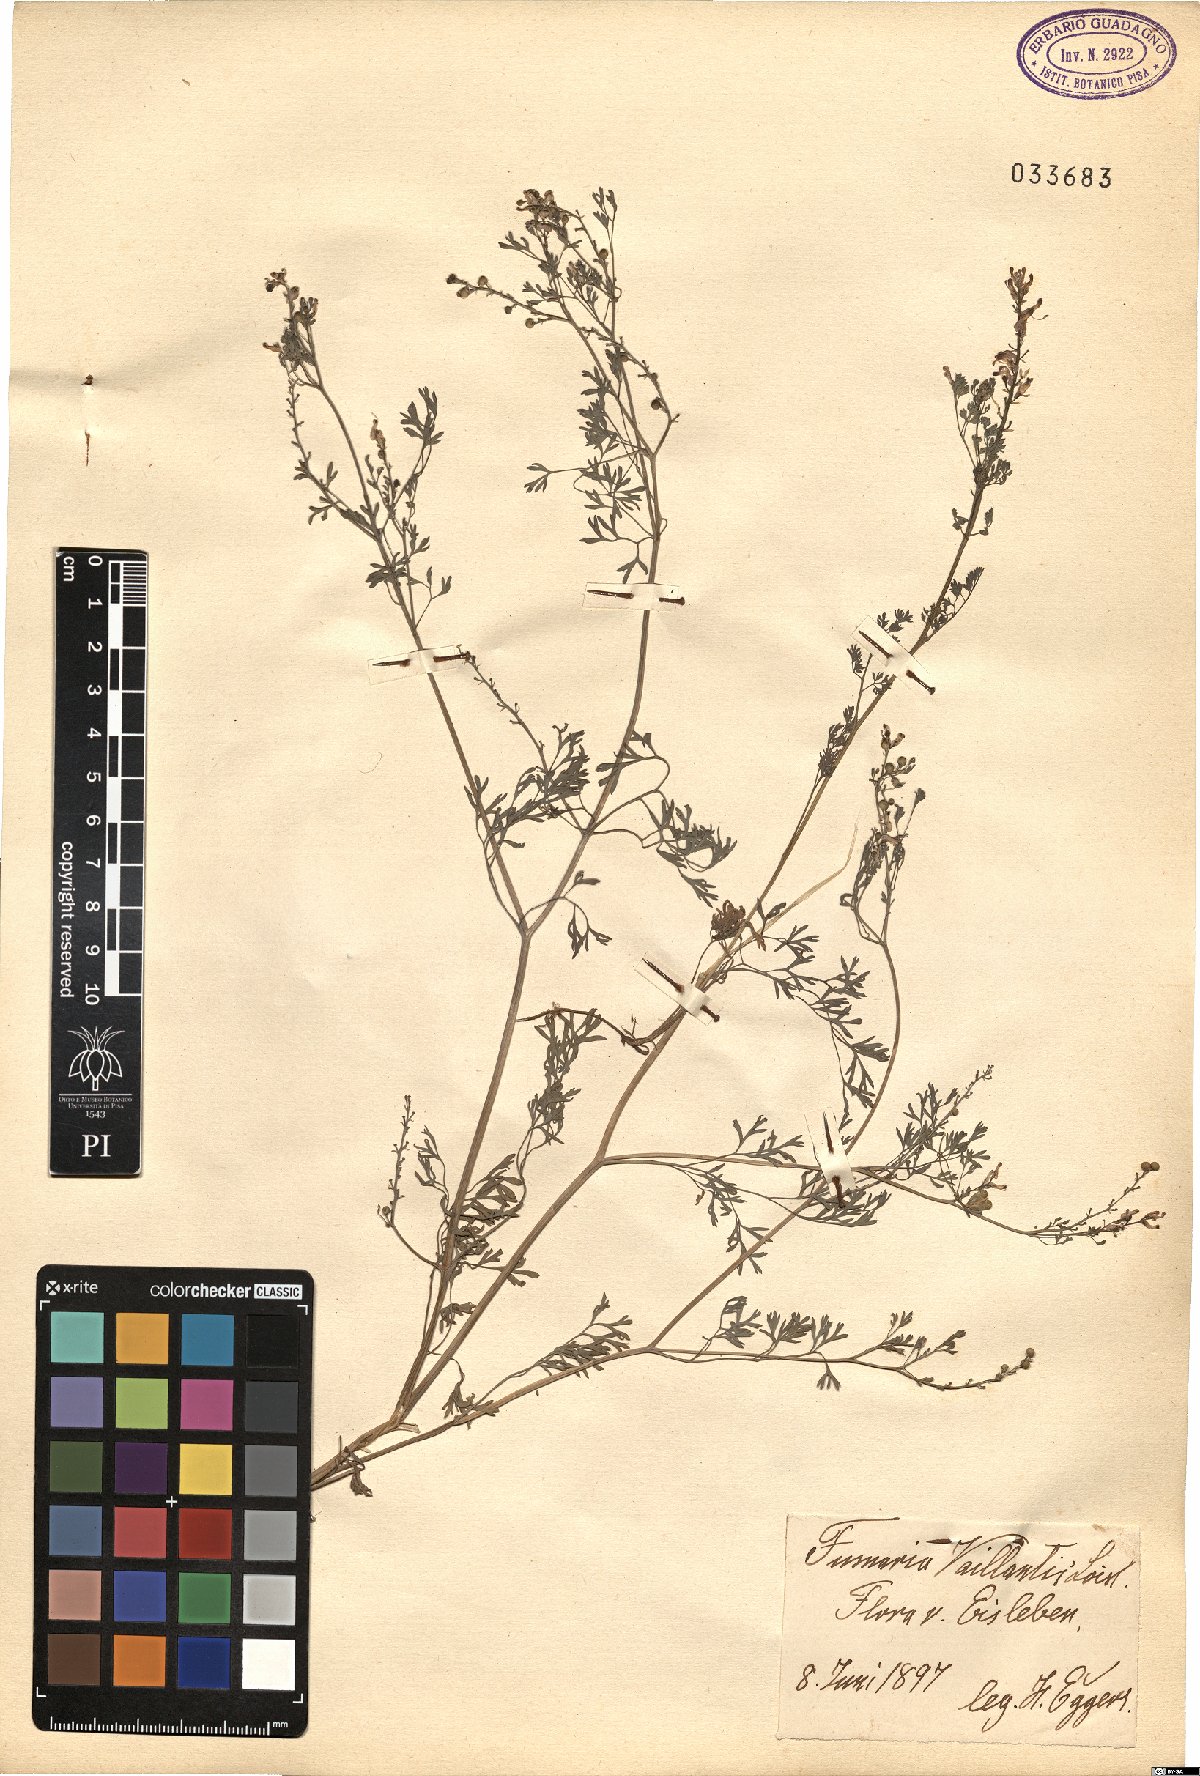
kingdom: Plantae
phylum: Tracheophyta
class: Magnoliopsida
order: Ranunculales
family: Papaveraceae
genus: Fumaria
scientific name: Fumaria vaillantii
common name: Few-flowered fumitory
